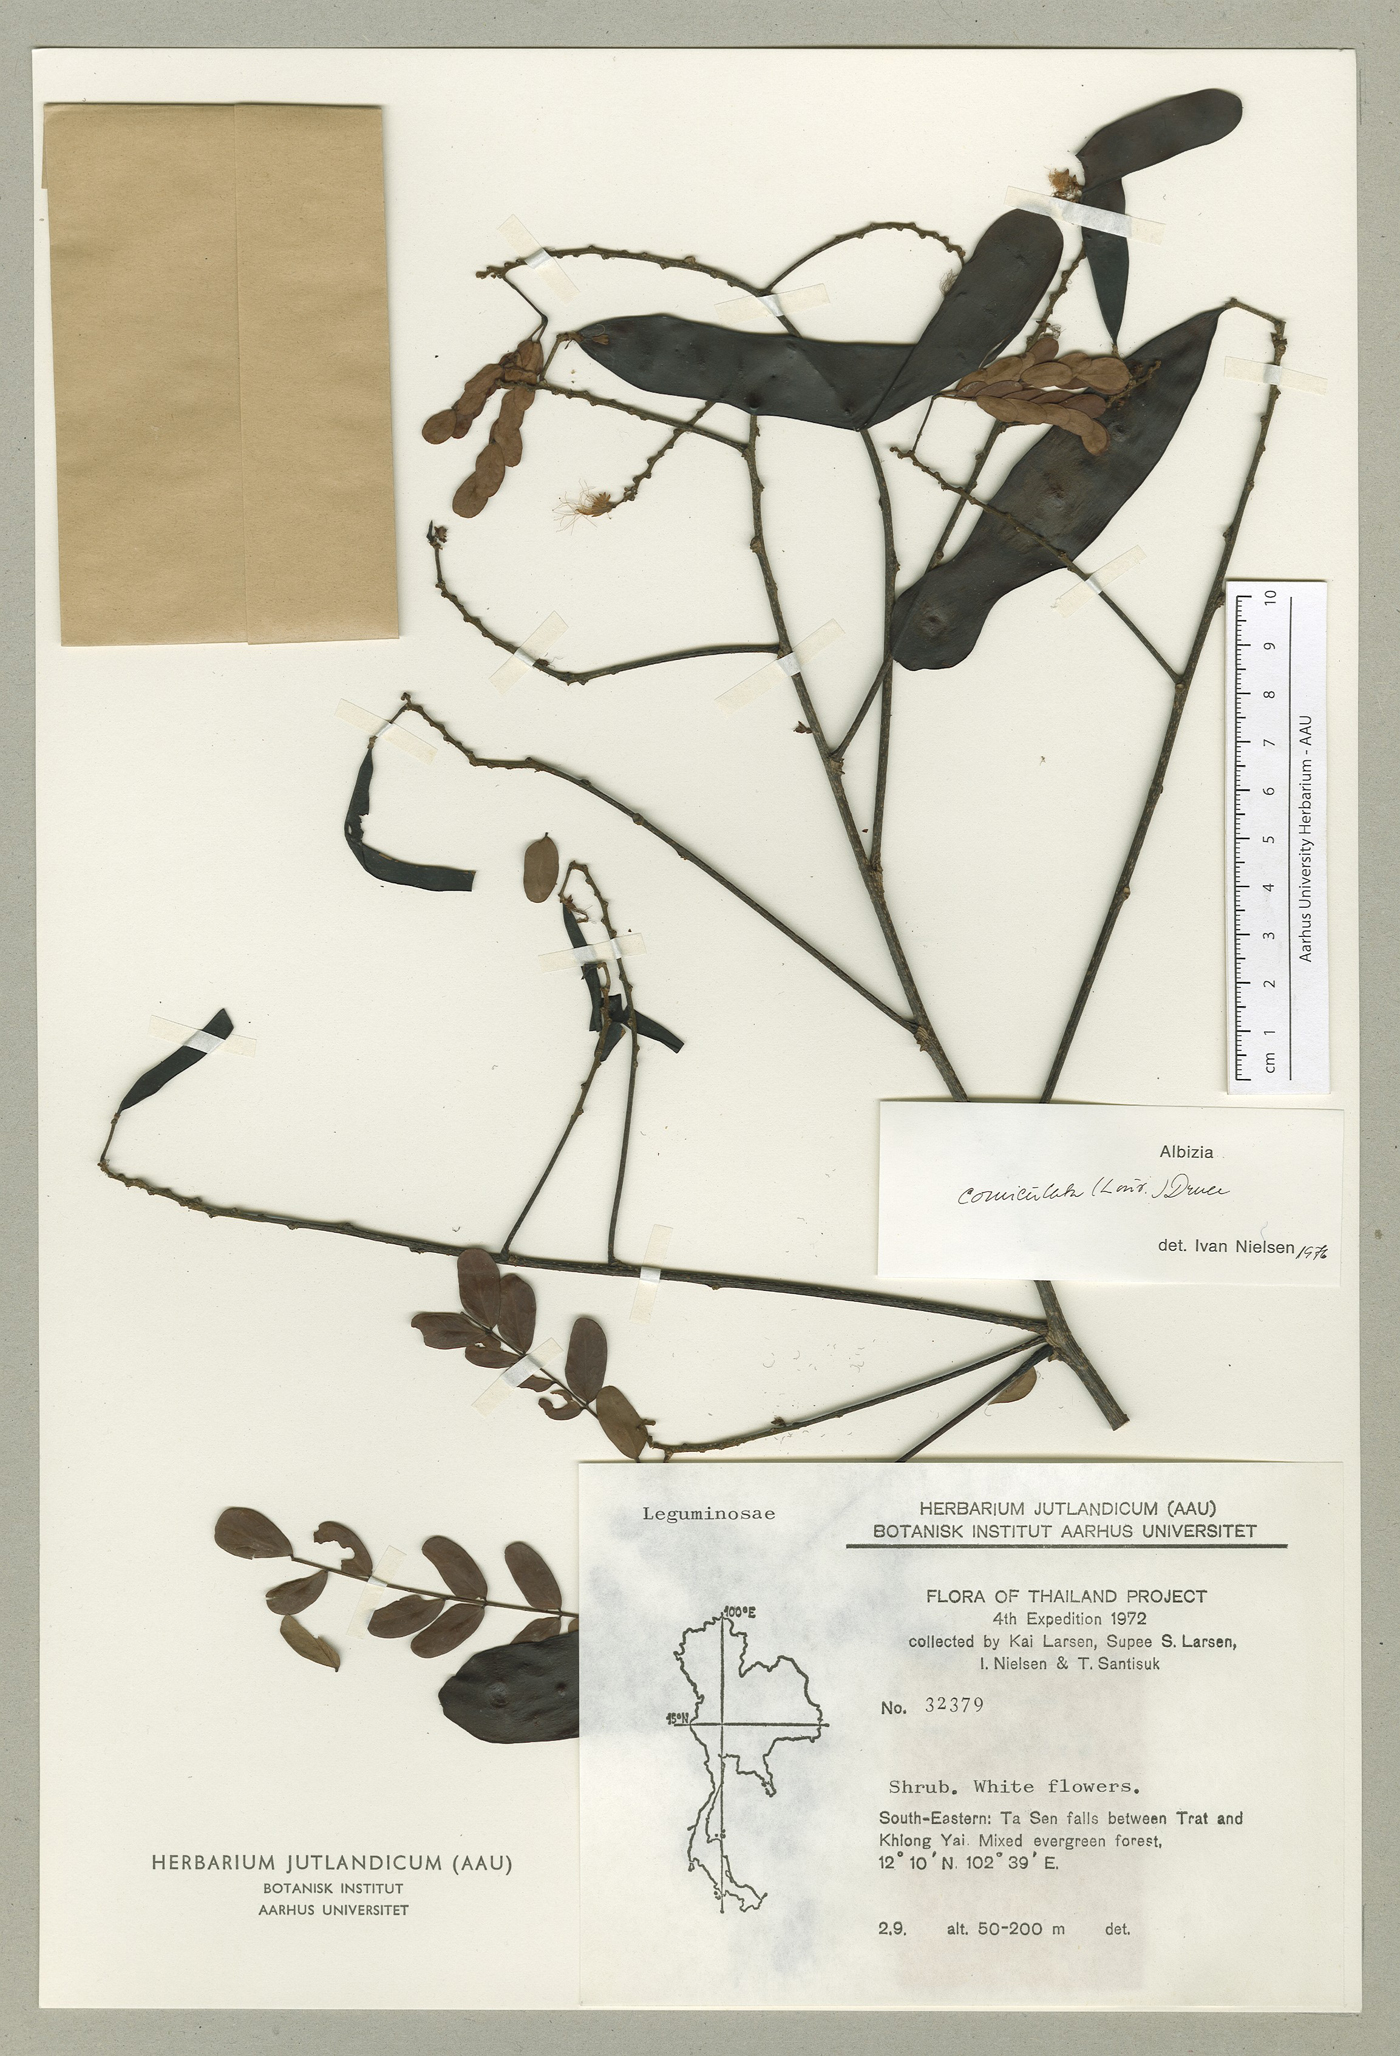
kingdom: Plantae
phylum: Tracheophyta
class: Magnoliopsida
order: Fabales
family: Fabaceae
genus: Albizia
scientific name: Albizia corniculata
